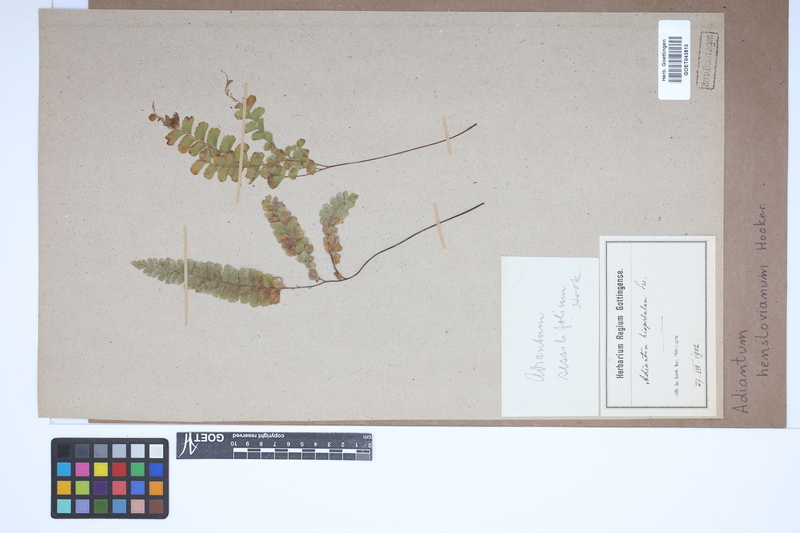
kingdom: Plantae
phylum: Tracheophyta
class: Polypodiopsida
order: Polypodiales
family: Pteridaceae
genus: Adiantum
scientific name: Adiantum henslovianum
